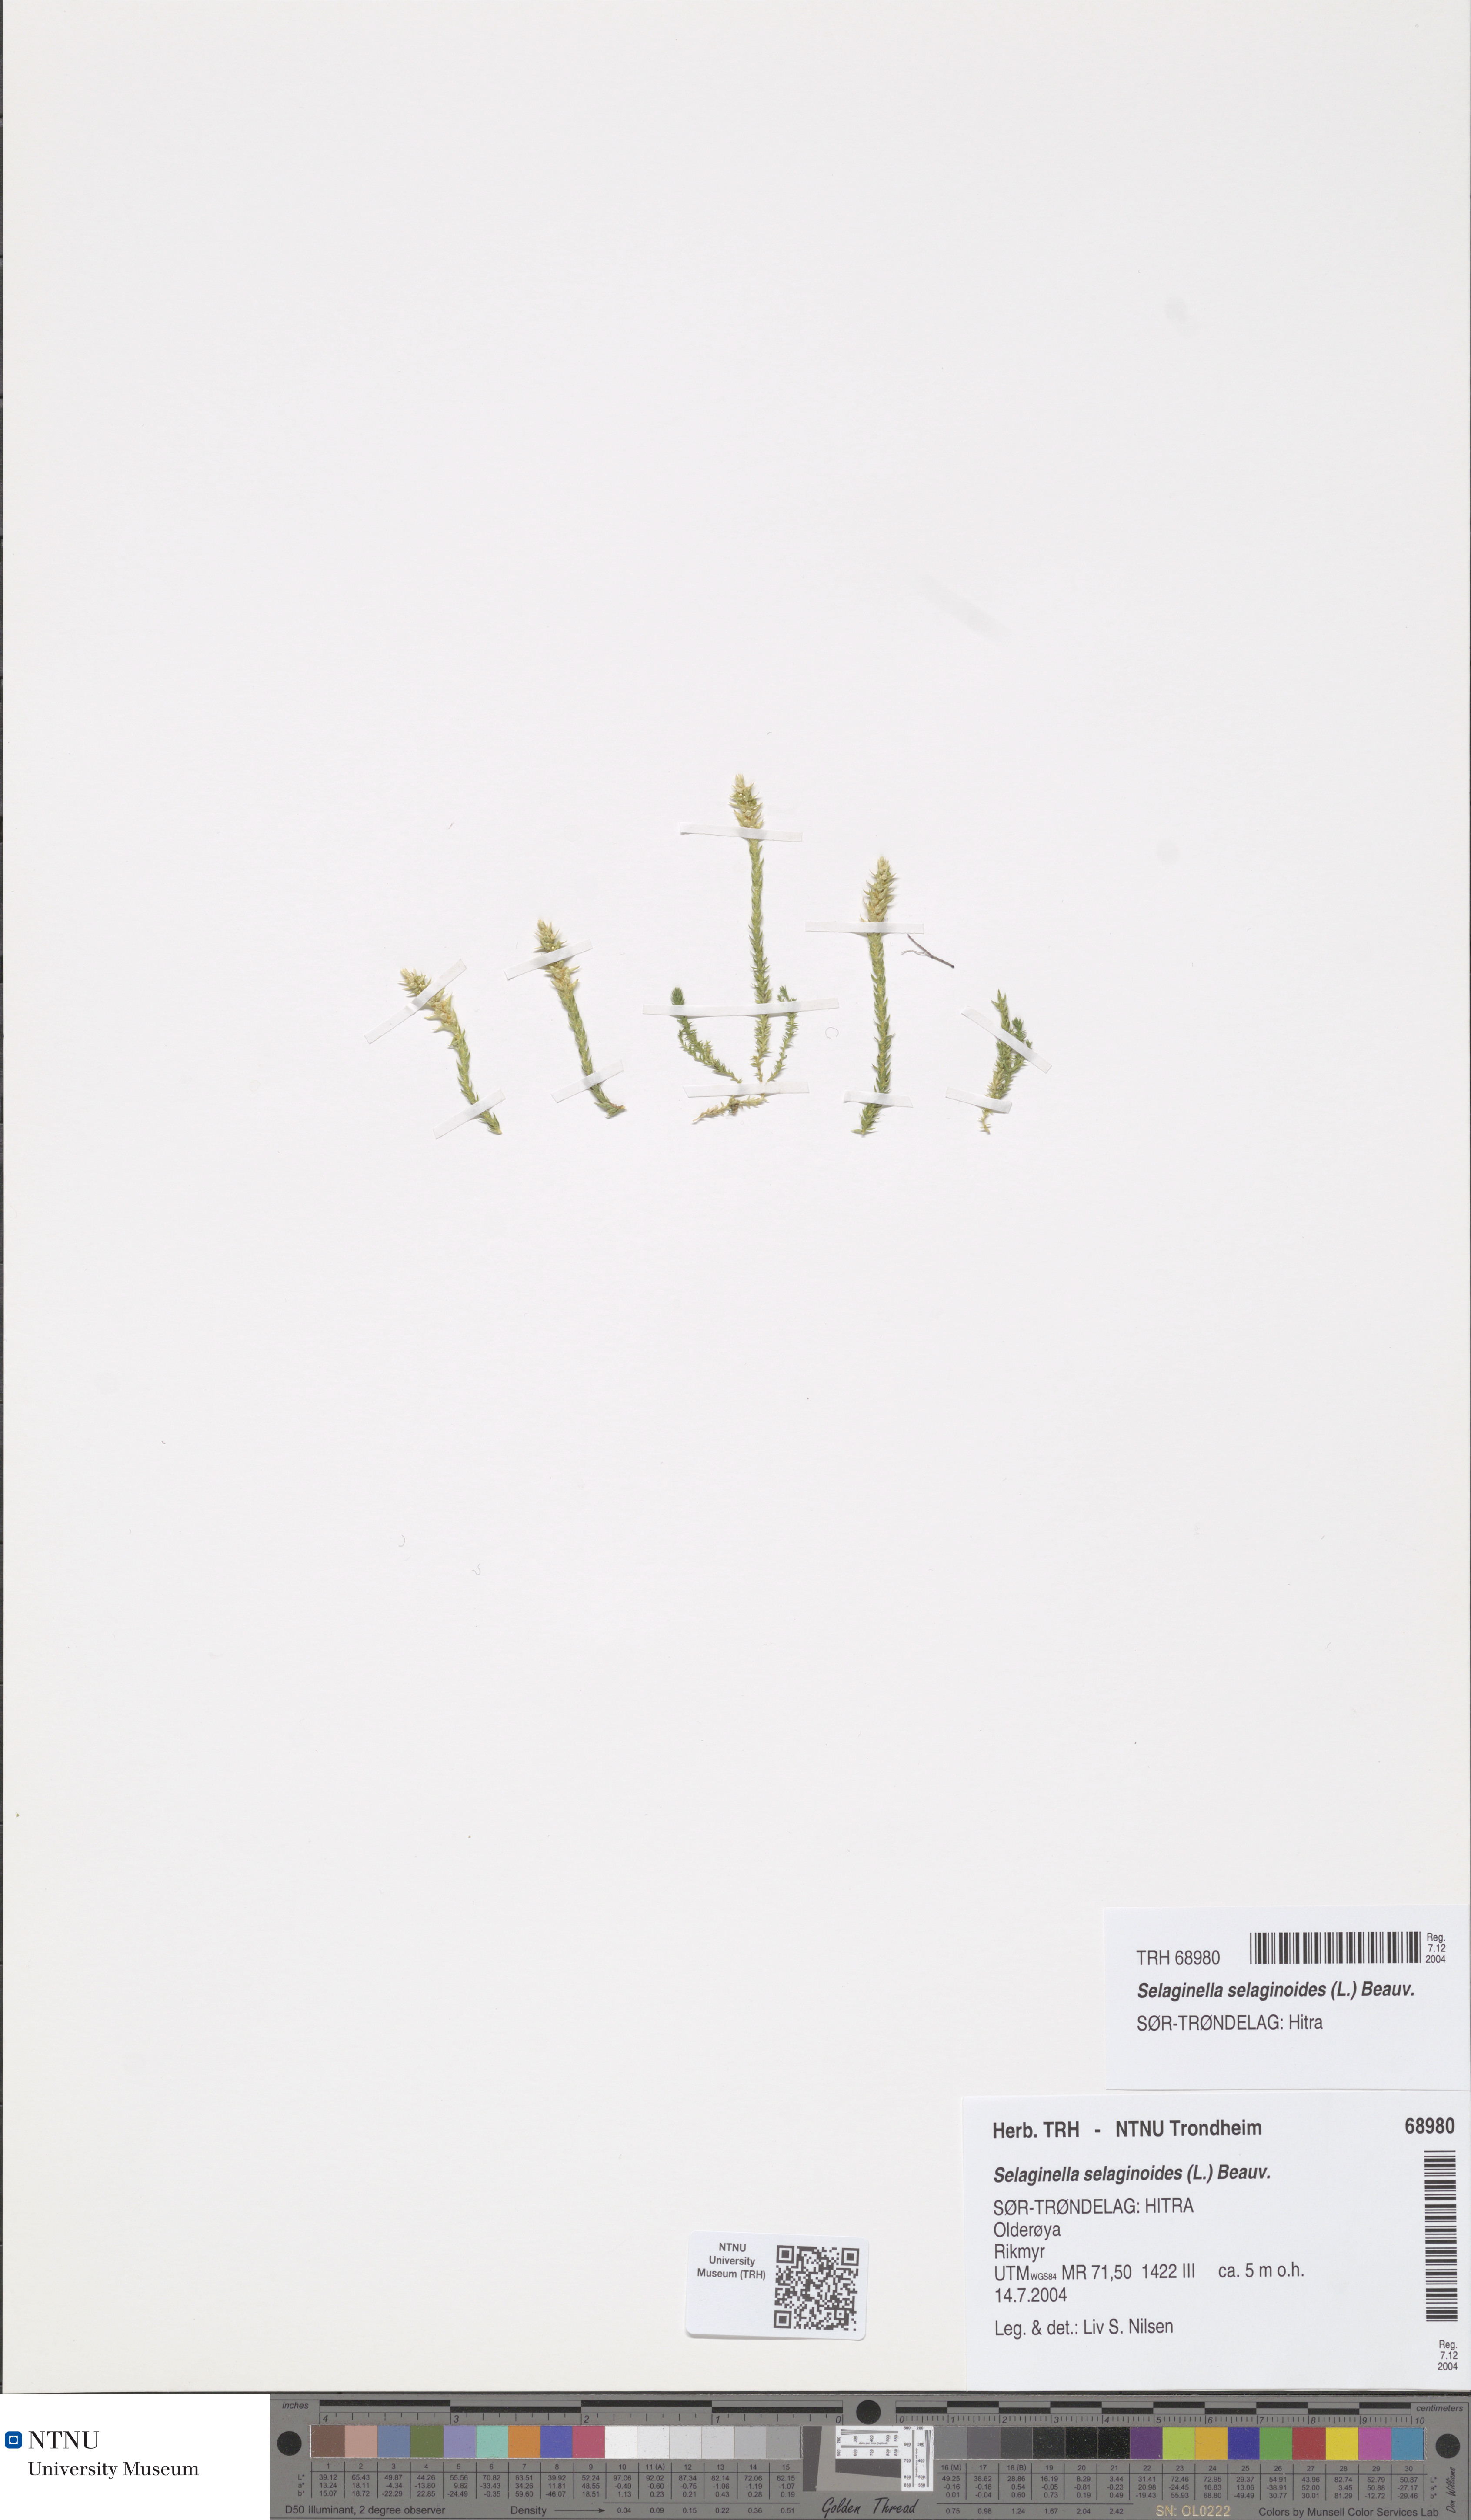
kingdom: Plantae
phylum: Tracheophyta
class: Lycopodiopsida
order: Selaginellales
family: Selaginellaceae
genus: Selaginella
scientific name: Selaginella selaginoides
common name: Prickly mountain-moss
